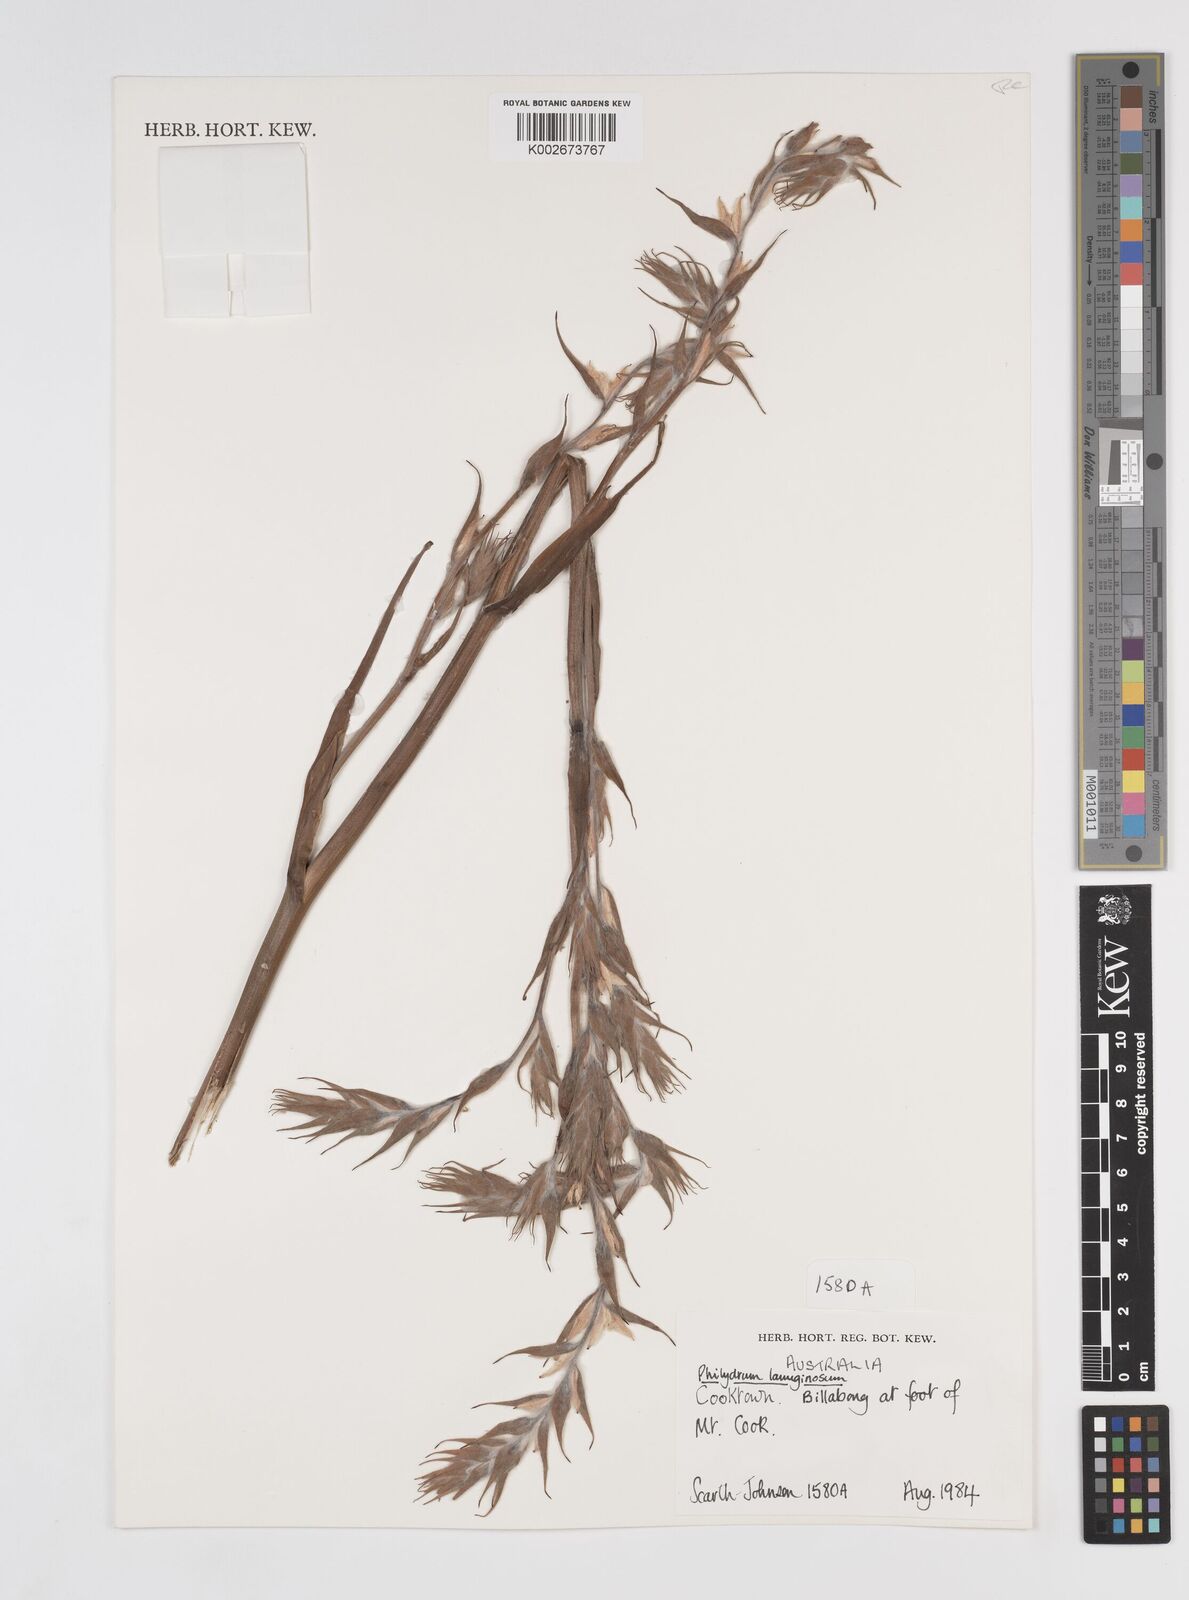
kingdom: Plantae
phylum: Tracheophyta
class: Liliopsida
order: Commelinales
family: Philydraceae
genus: Philydrum
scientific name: Philydrum lanuginosum
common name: Woolly frog's mouth
